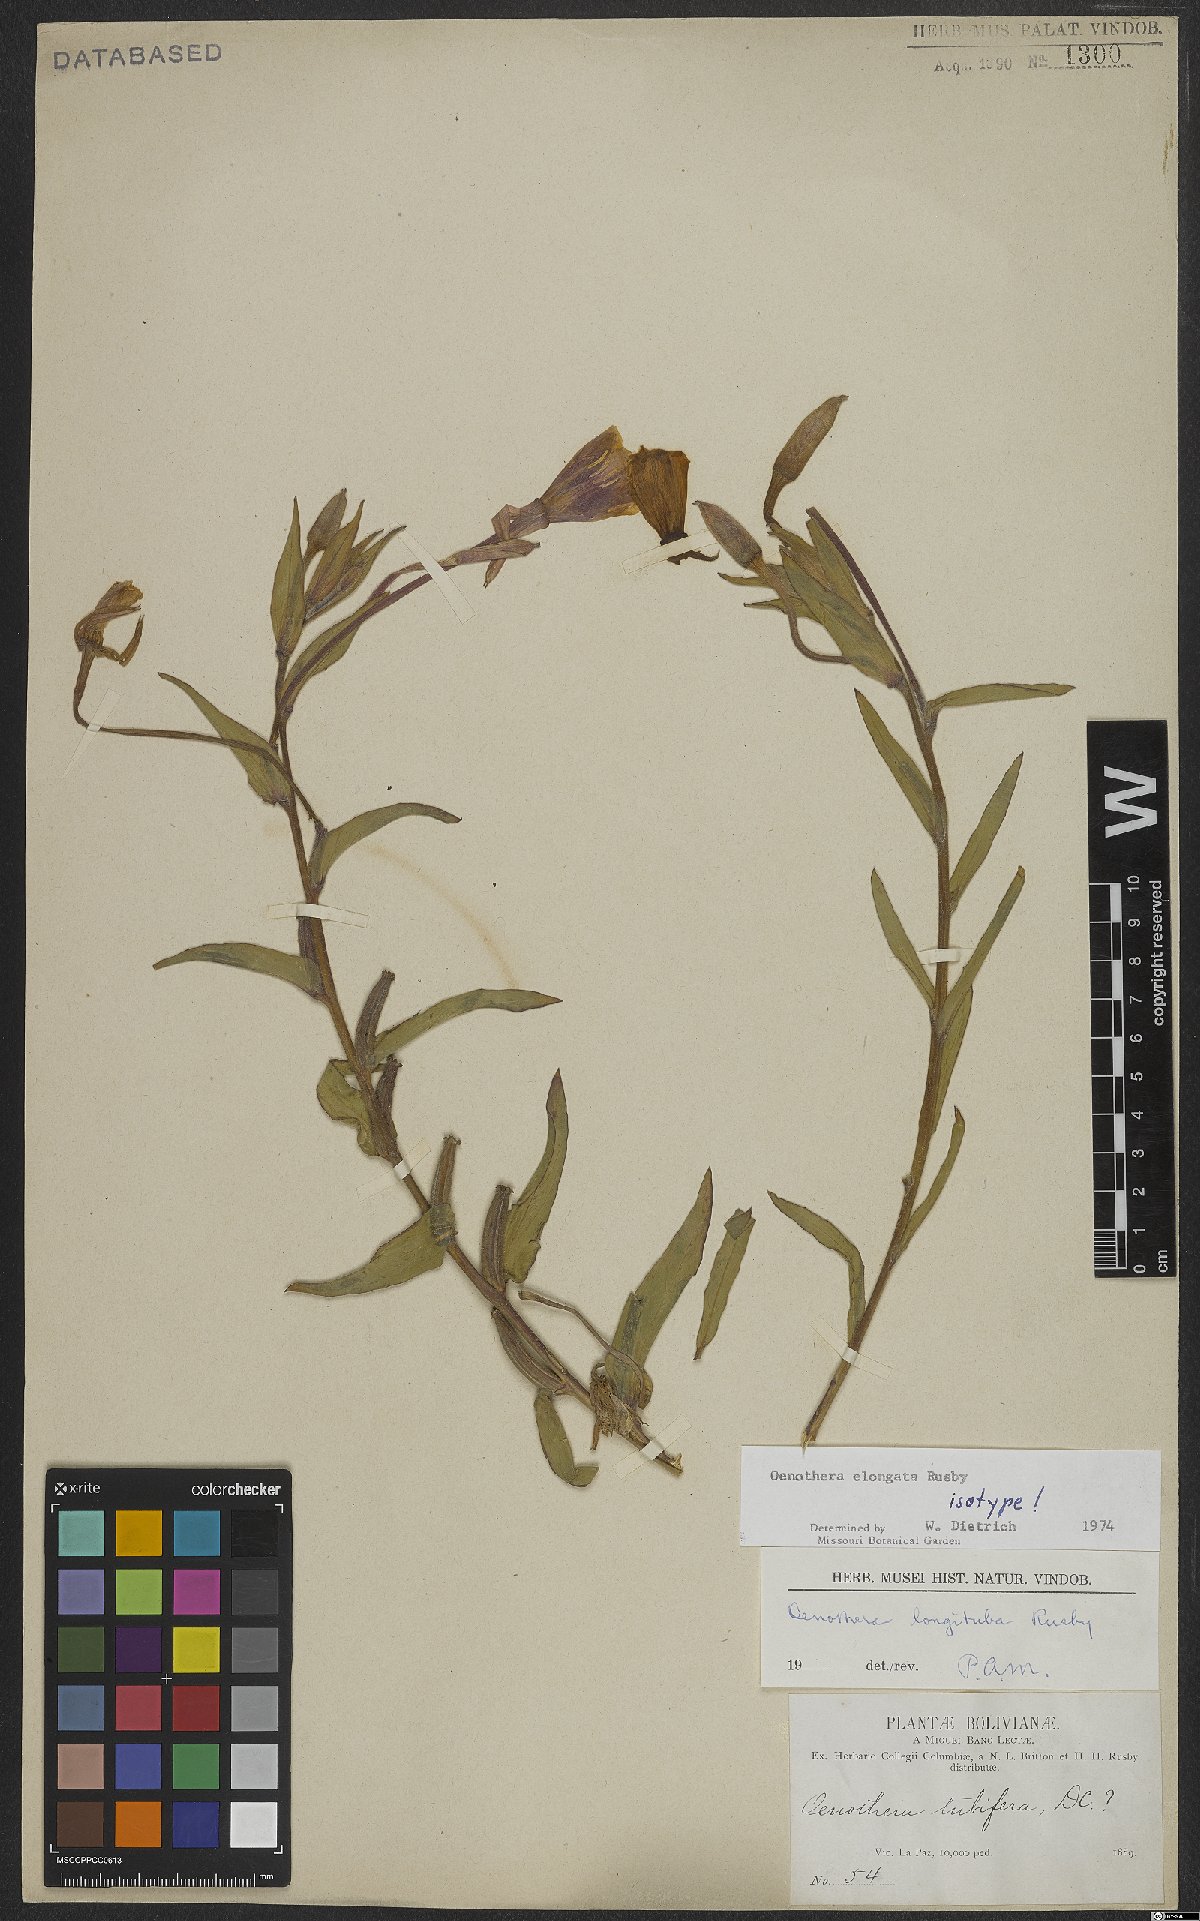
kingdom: Plantae
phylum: Tracheophyta
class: Magnoliopsida
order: Myrtales
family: Onagraceae
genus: Oenothera
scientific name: Oenothera elongata
